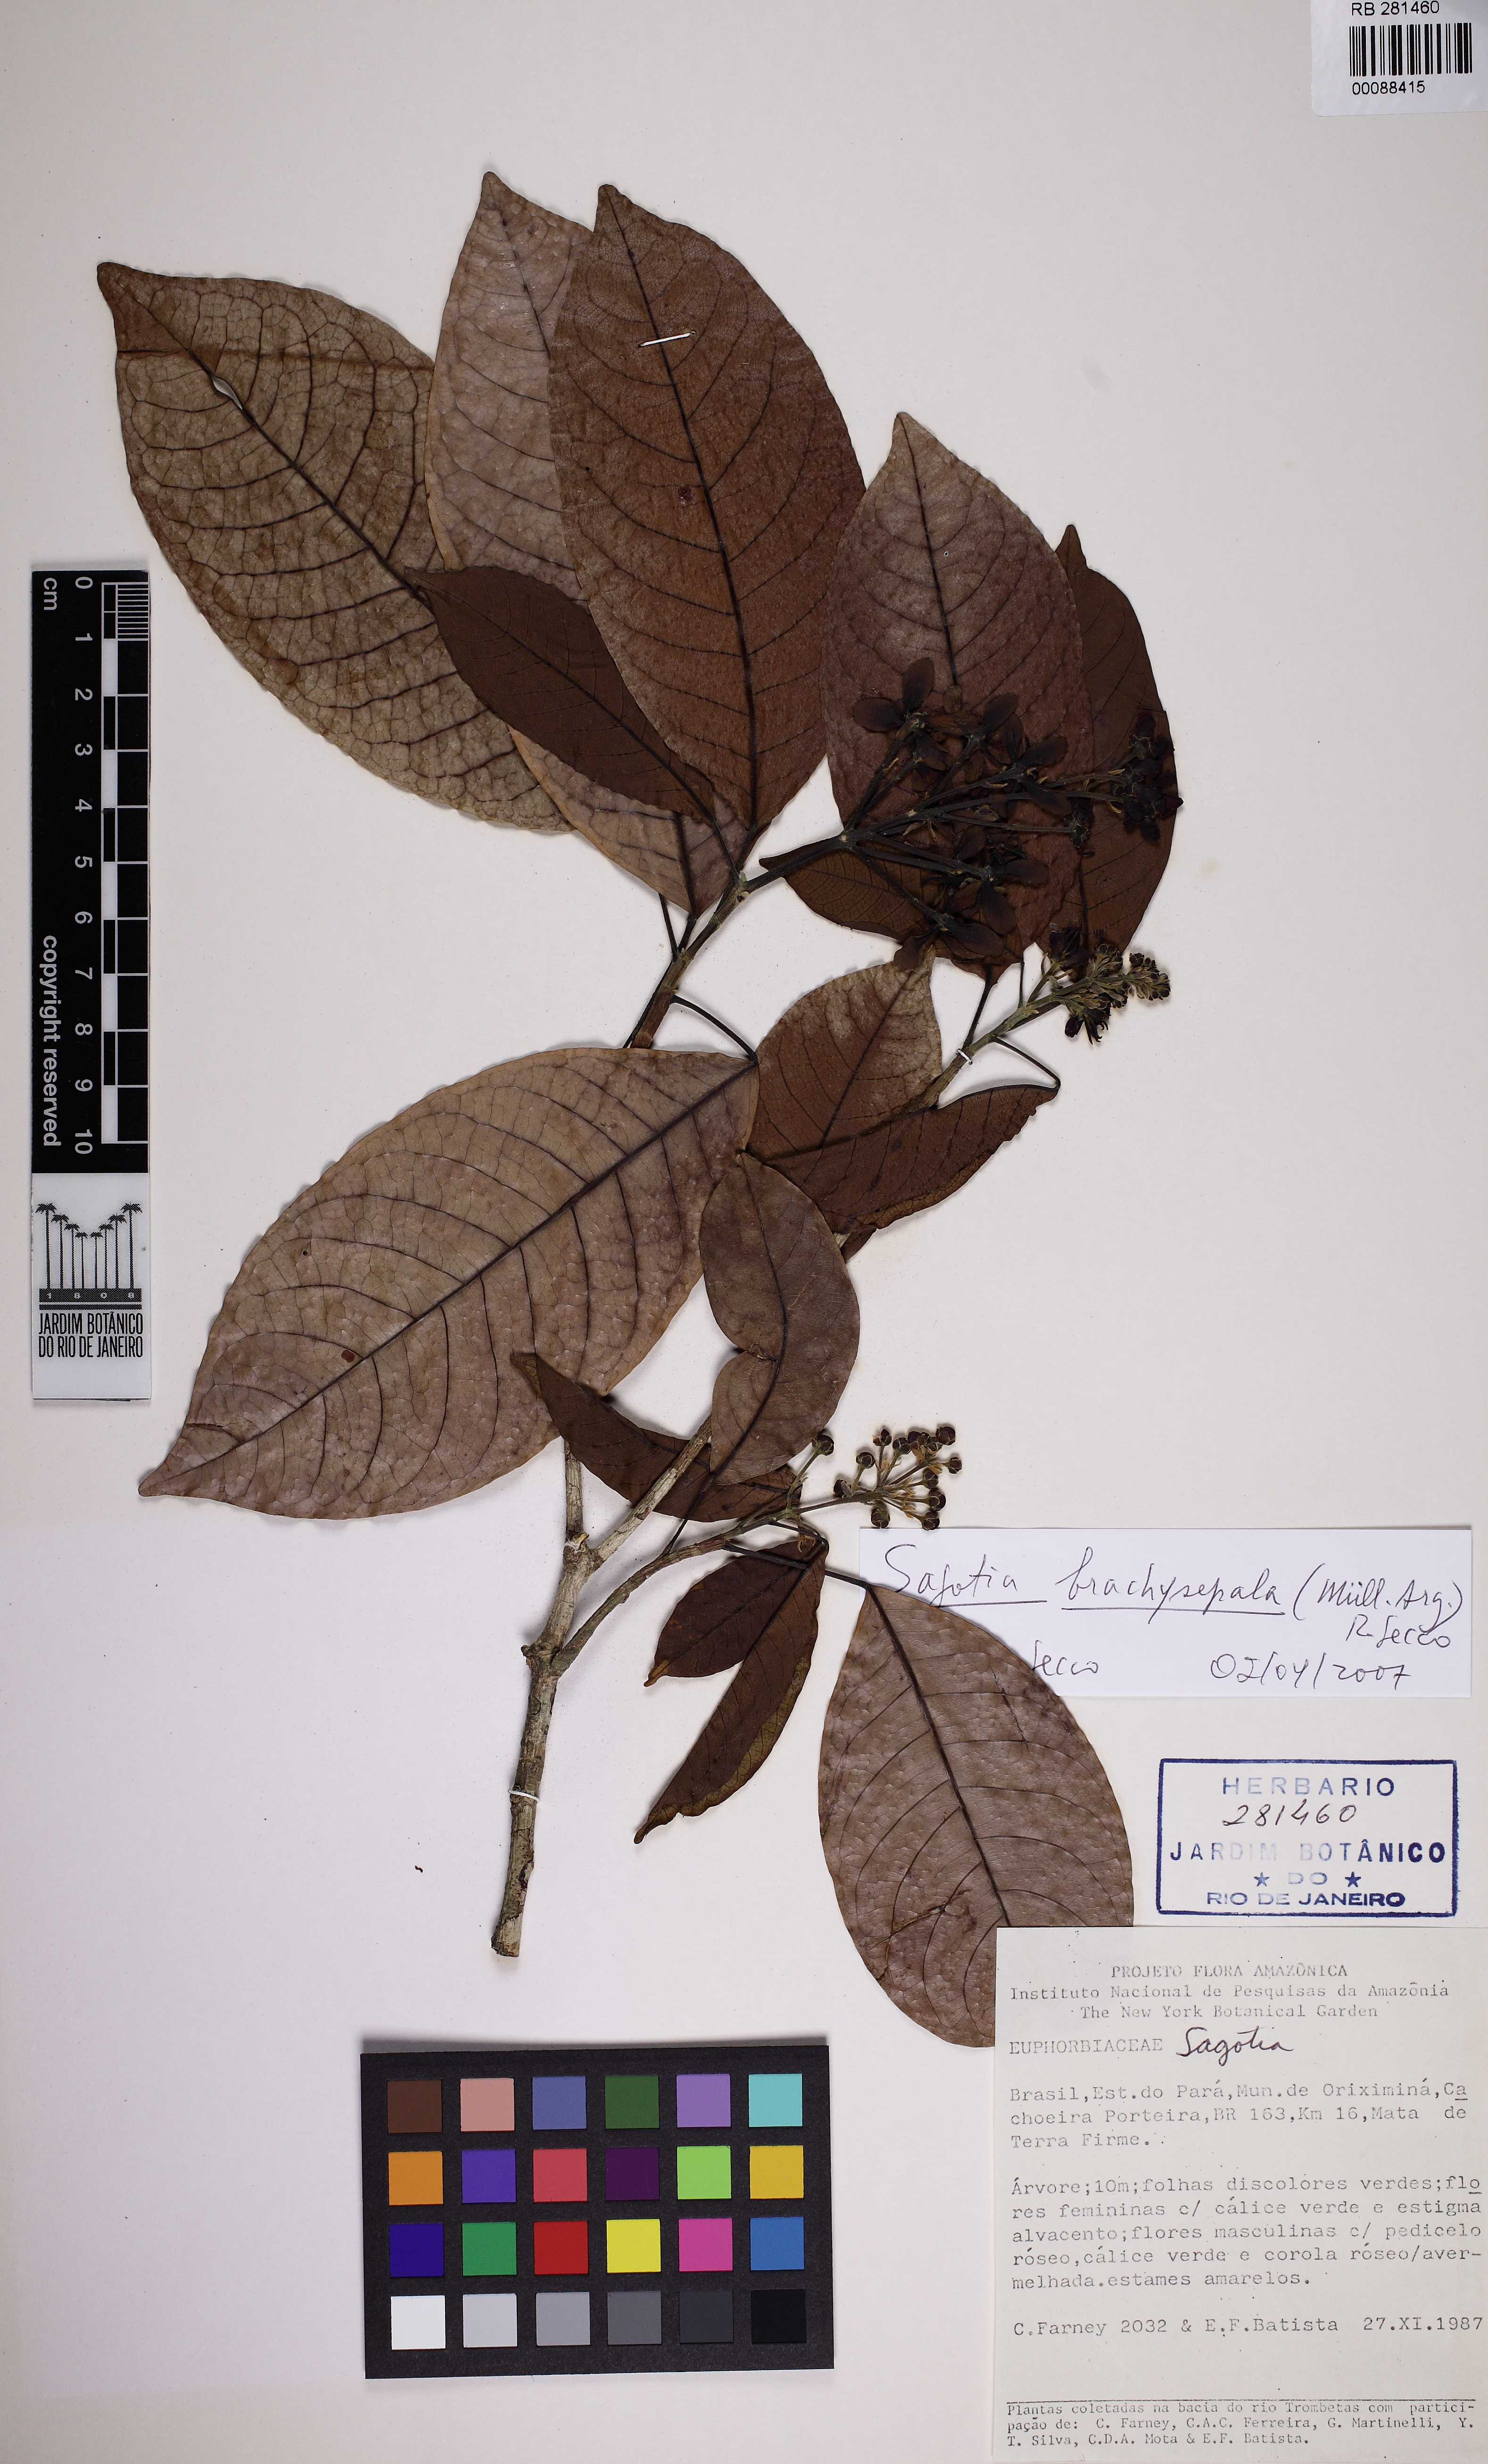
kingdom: Plantae
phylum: Tracheophyta
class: Magnoliopsida
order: Malpighiales
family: Euphorbiaceae
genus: Sagotia
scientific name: Sagotia brachysepala
